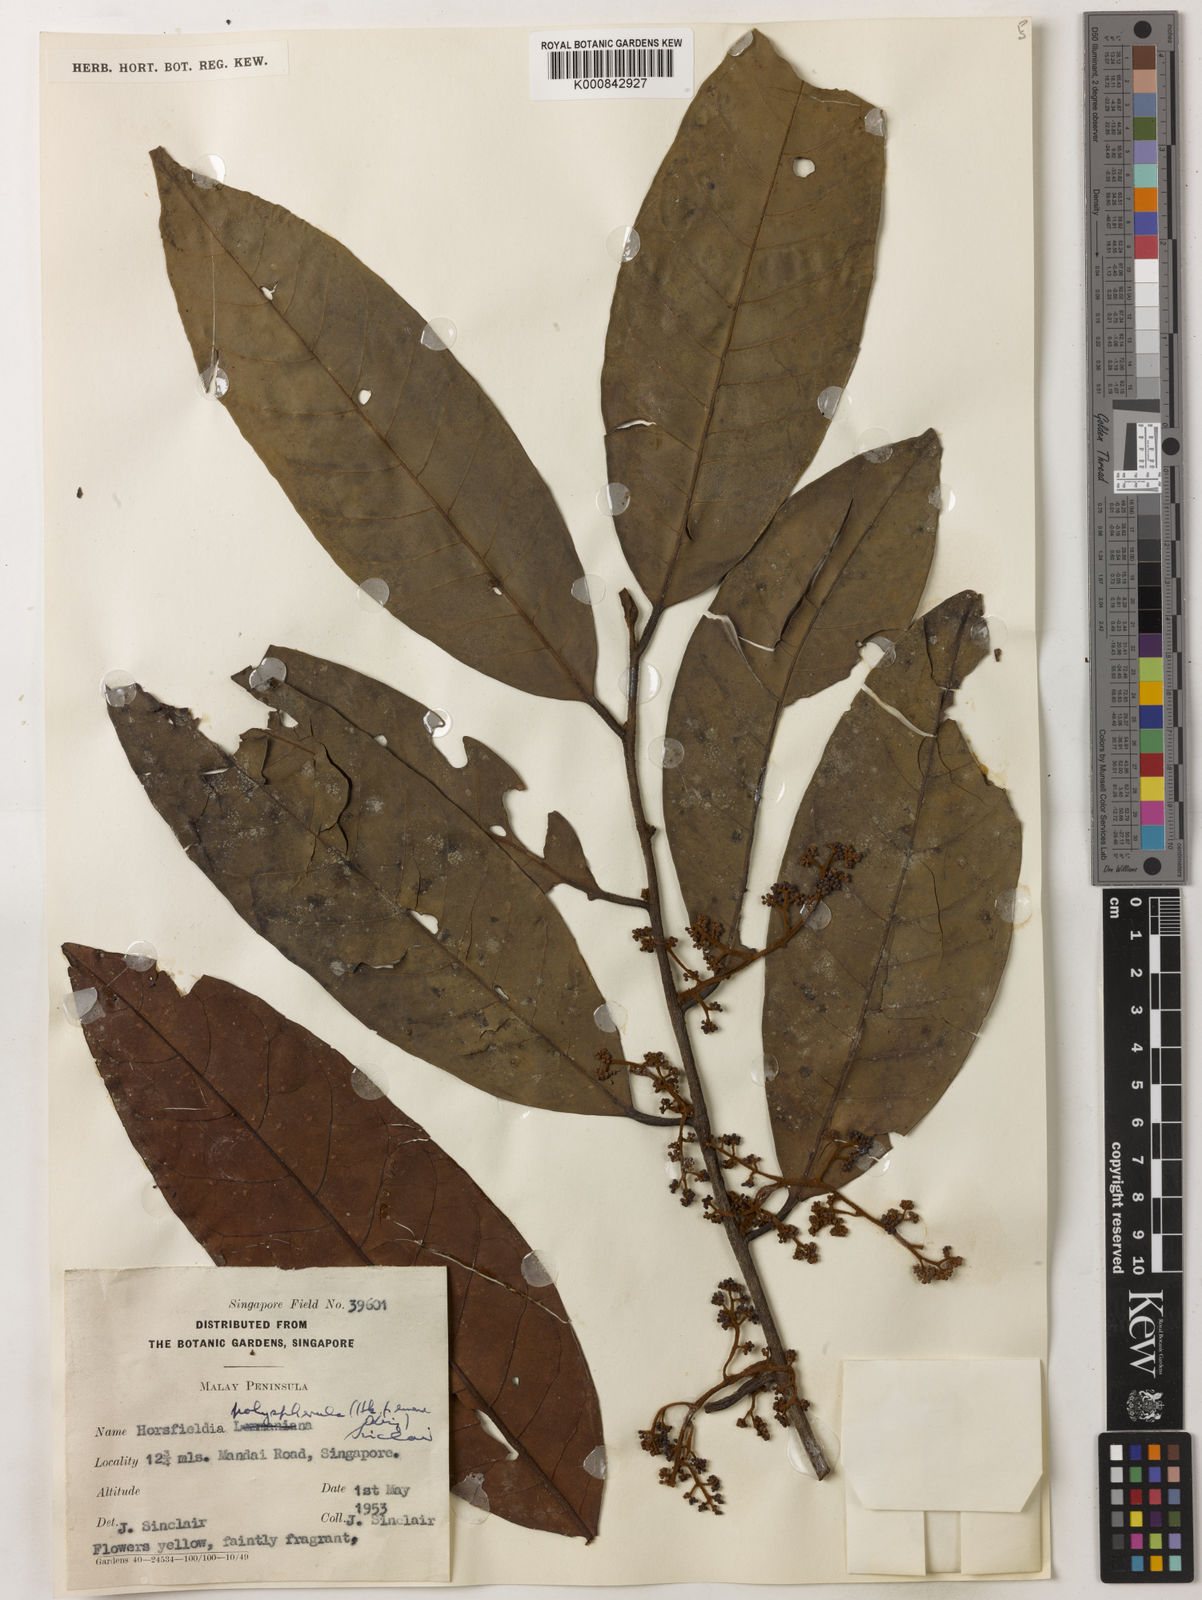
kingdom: Plantae
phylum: Tracheophyta
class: Magnoliopsida
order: Magnoliales
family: Myristicaceae
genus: Horsfieldia
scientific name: Horsfieldia polyspherula
